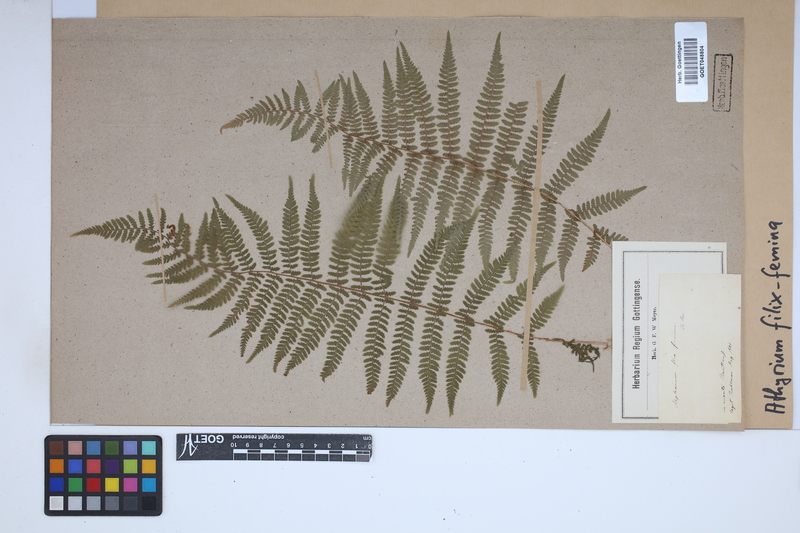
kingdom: Plantae
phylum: Tracheophyta
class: Polypodiopsida
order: Polypodiales
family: Athyriaceae
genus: Athyrium
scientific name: Athyrium filix-femina
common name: Lady fern
